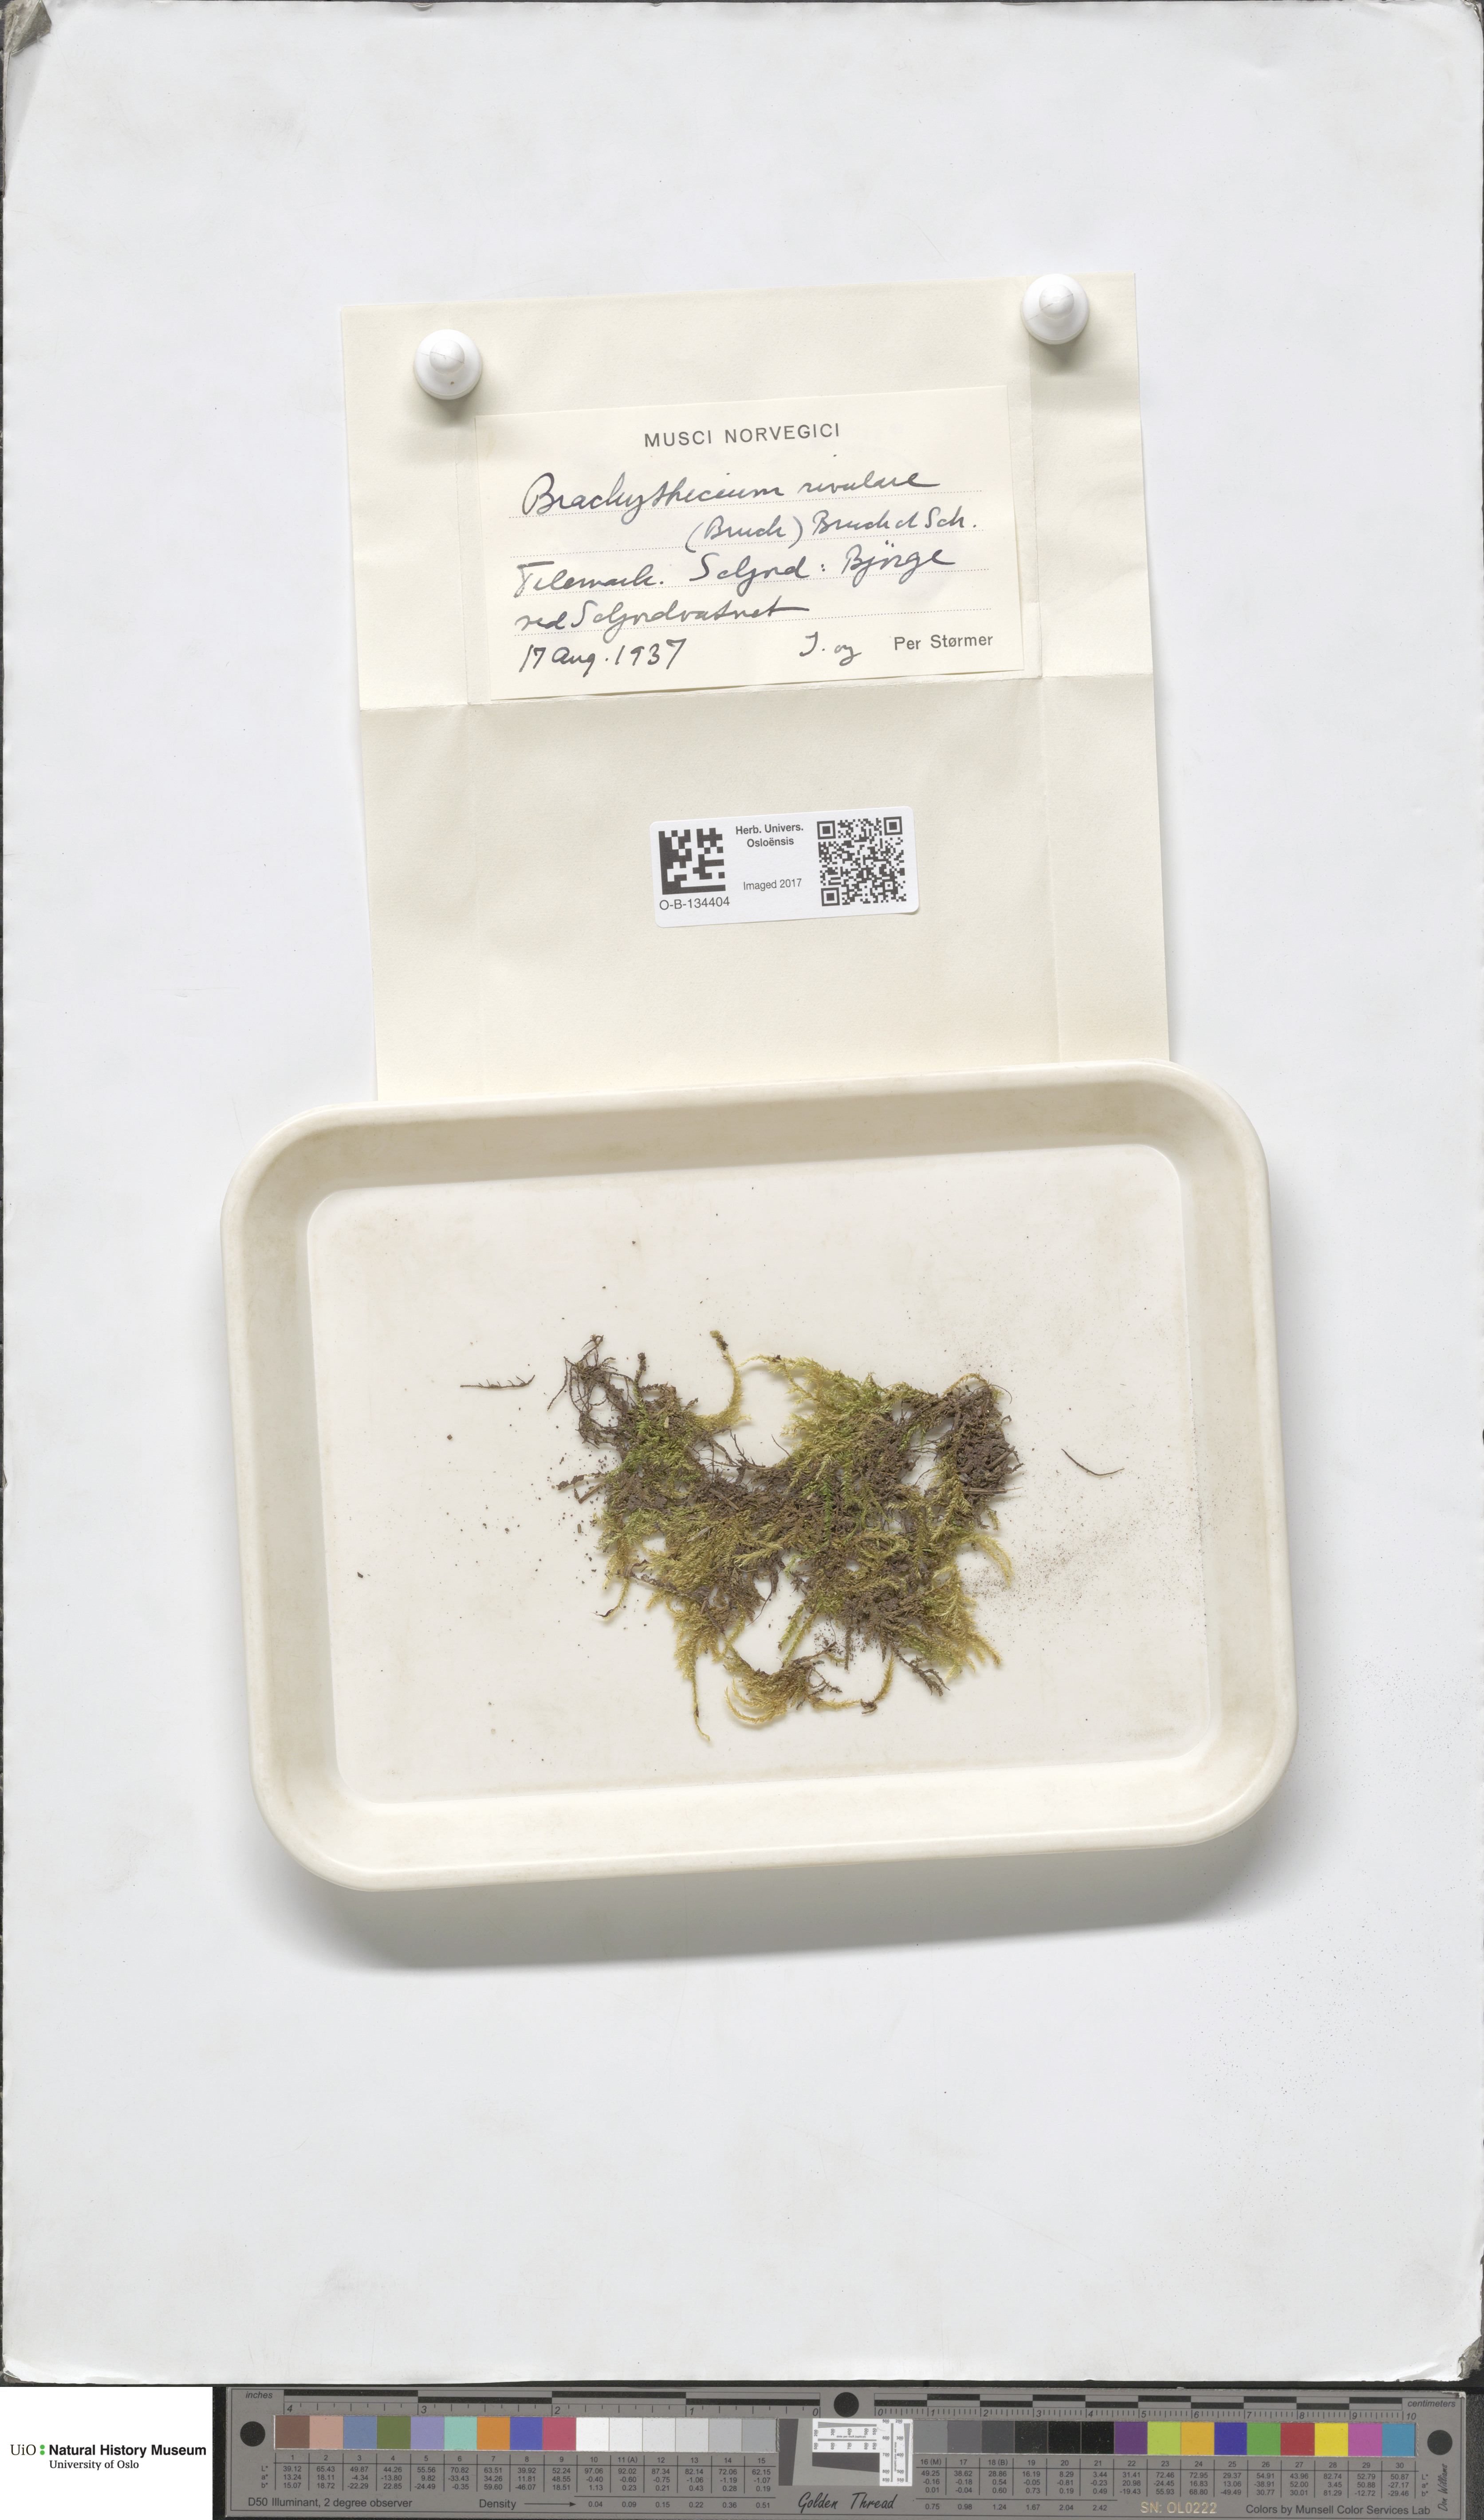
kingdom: Plantae
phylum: Bryophyta
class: Bryopsida
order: Hypnales
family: Brachytheciaceae
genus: Brachythecium
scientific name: Brachythecium rivulare
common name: River ragged moss
